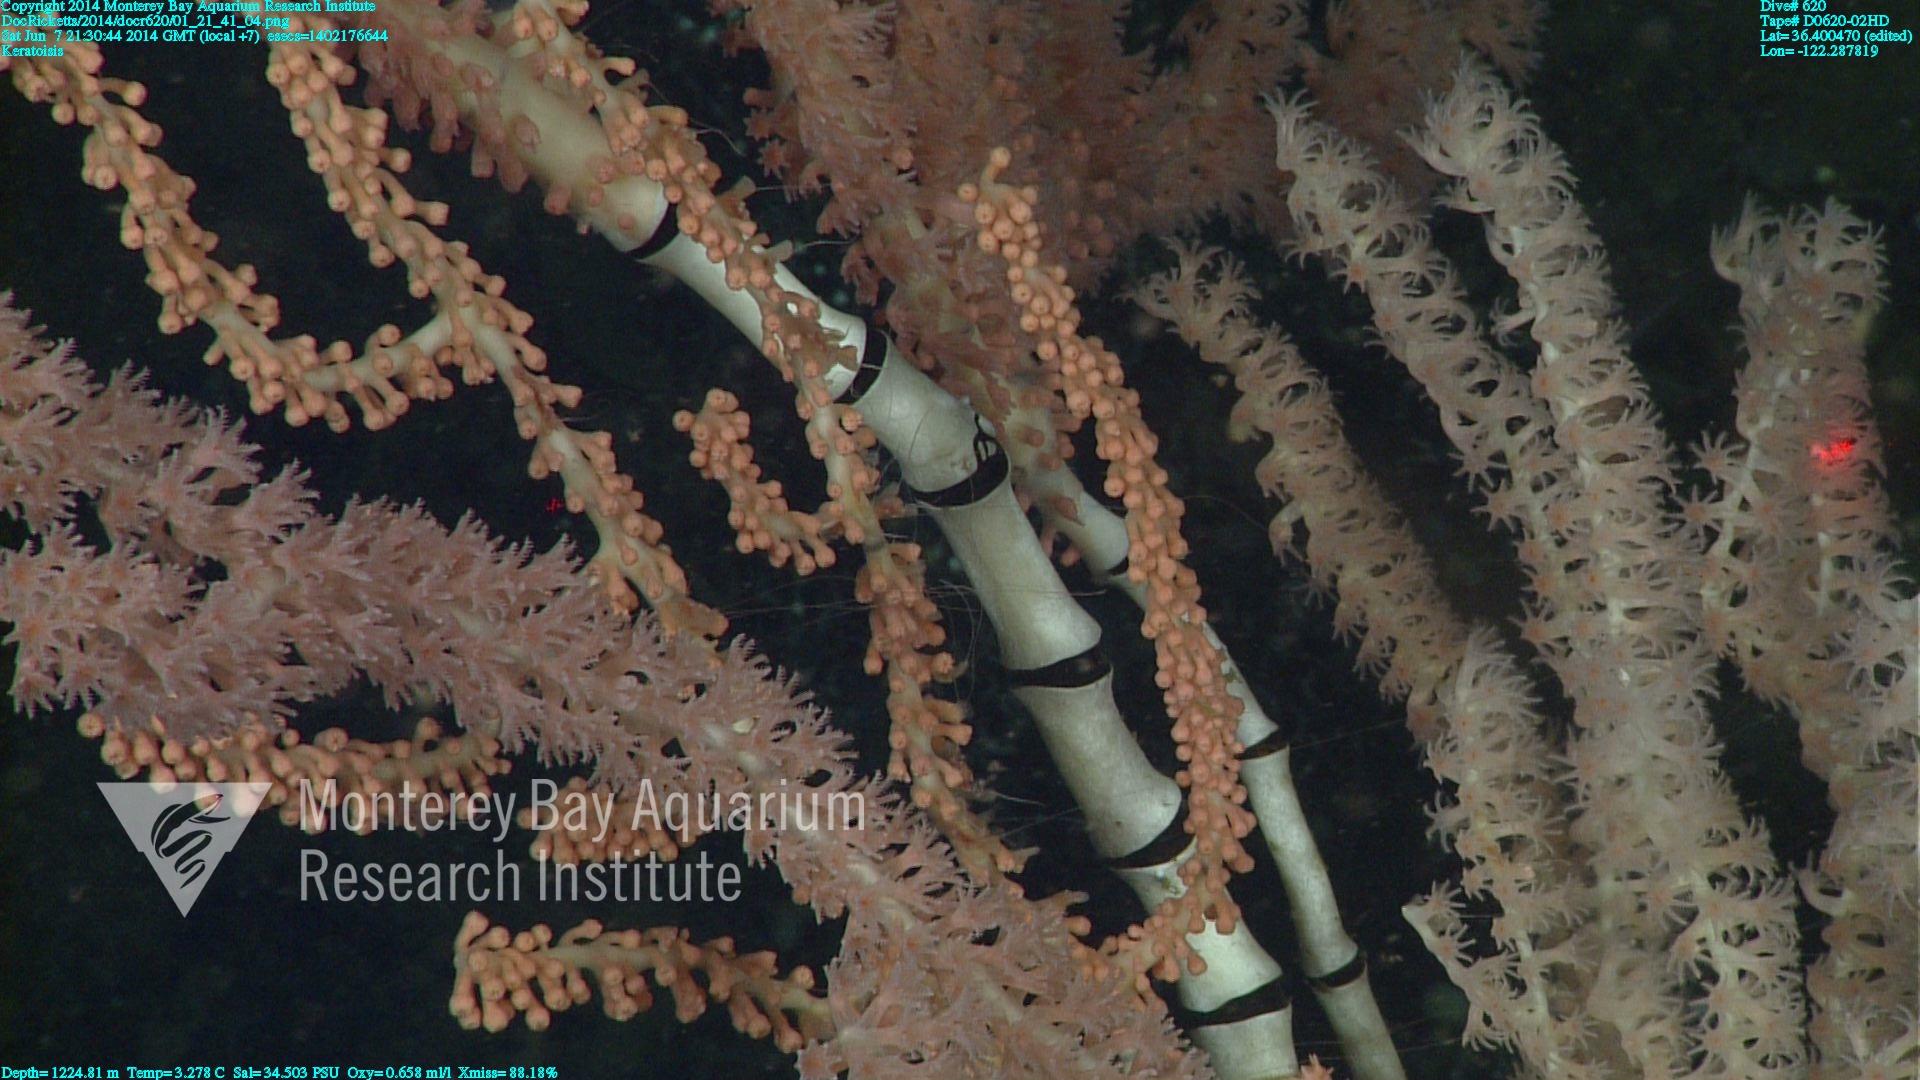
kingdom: Animalia
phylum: Cnidaria
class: Anthozoa
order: Scleralcyonacea
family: Keratoisididae
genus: Keratoisis
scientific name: Keratoisis
